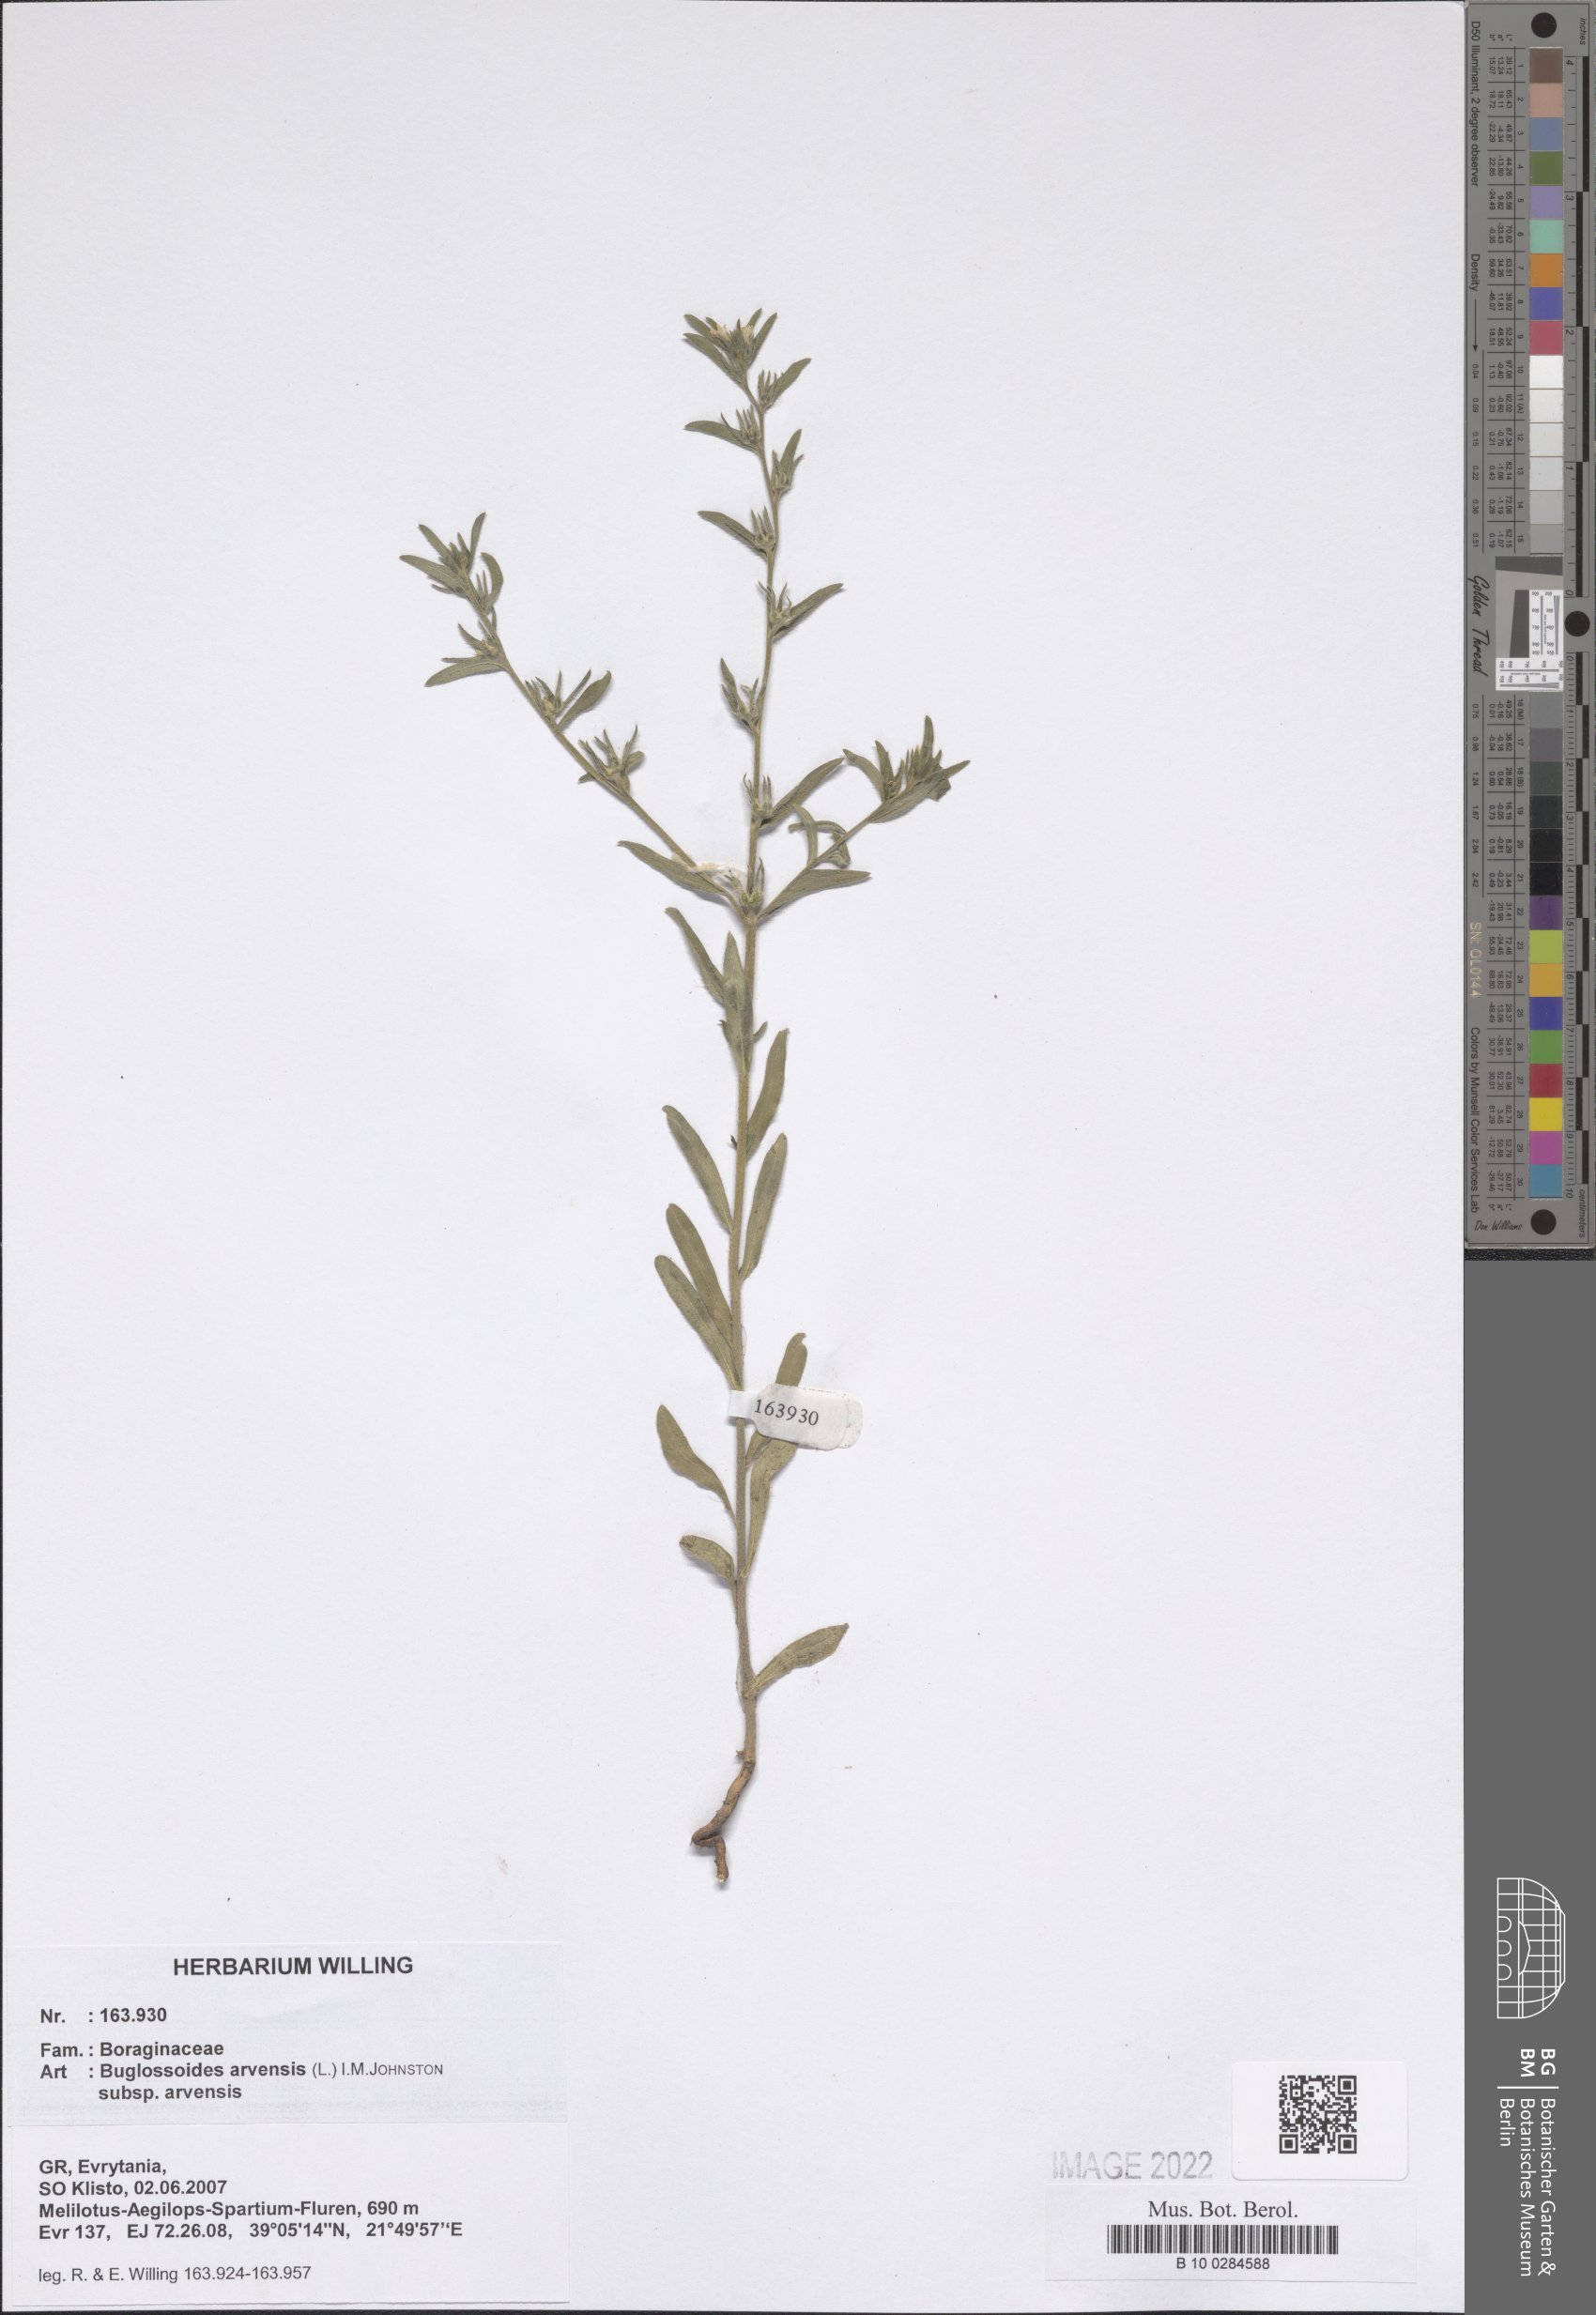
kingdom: Plantae
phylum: Tracheophyta
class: Magnoliopsida
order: Boraginales
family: Boraginaceae
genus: Buglossoides
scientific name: Buglossoides arvensis
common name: Corn gromwell
